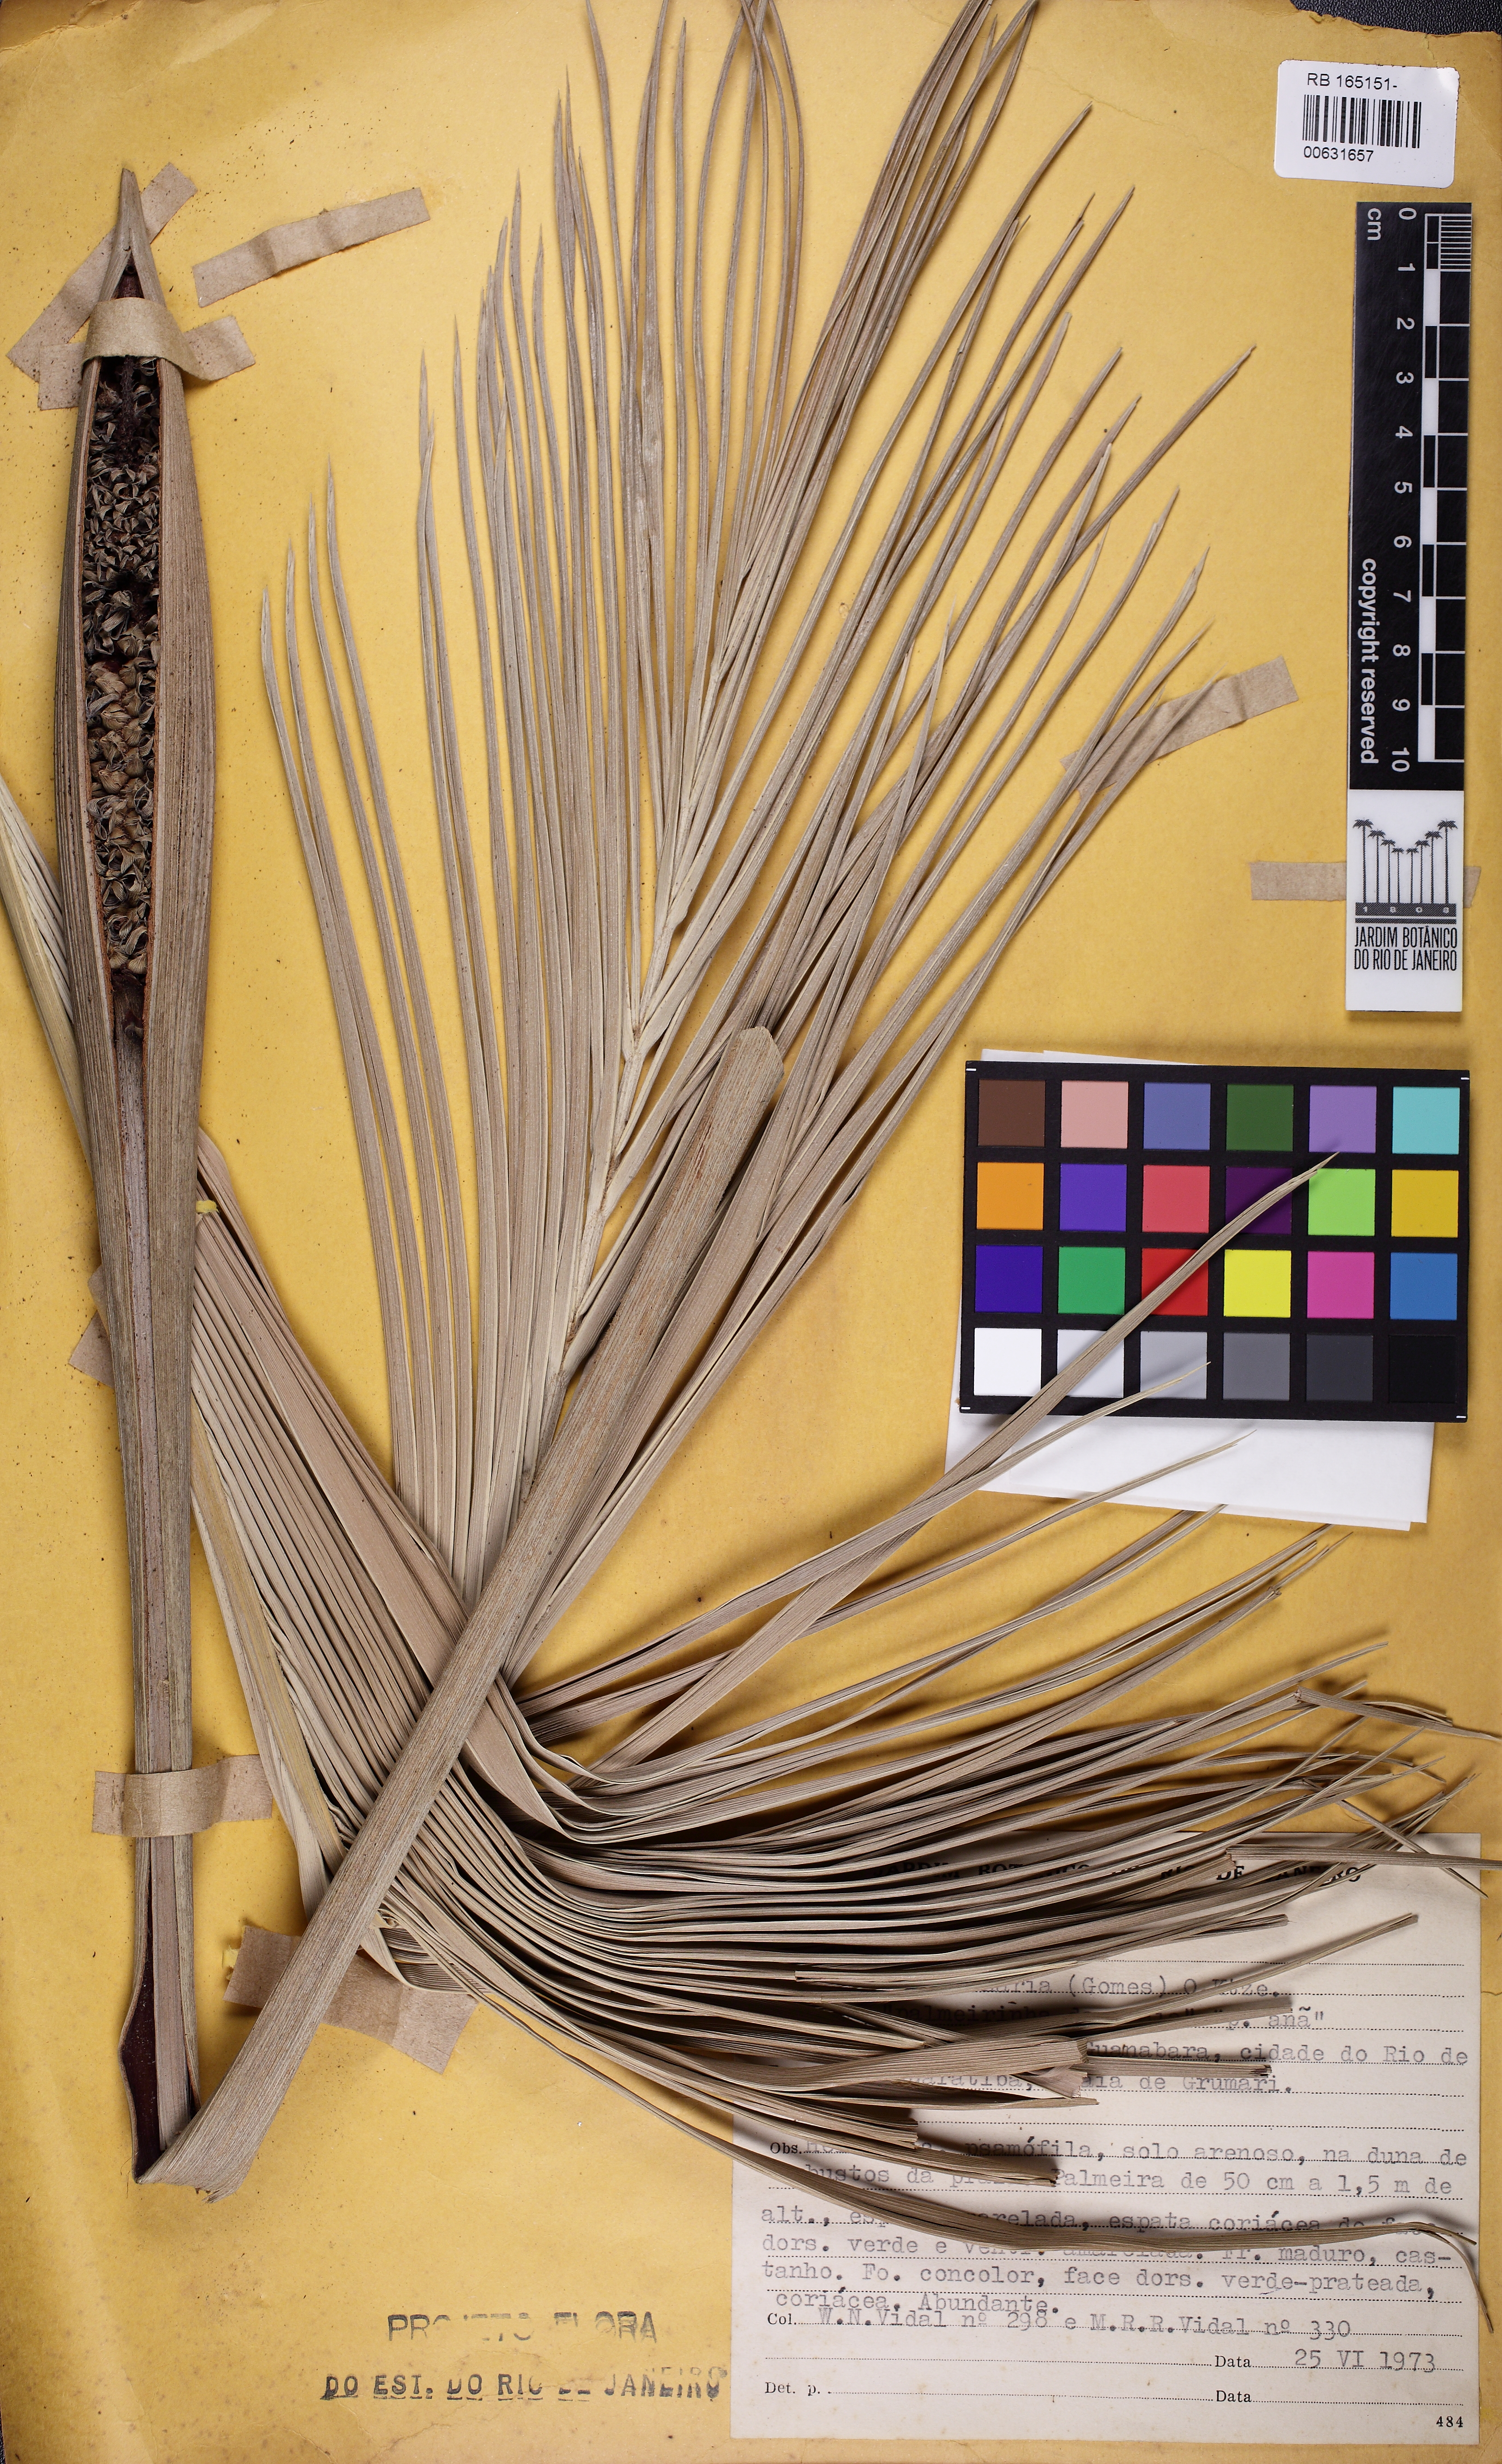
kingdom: Plantae
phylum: Tracheophyta
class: Liliopsida
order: Arecales
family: Arecaceae
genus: Allagoptera
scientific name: Allagoptera arenaria
